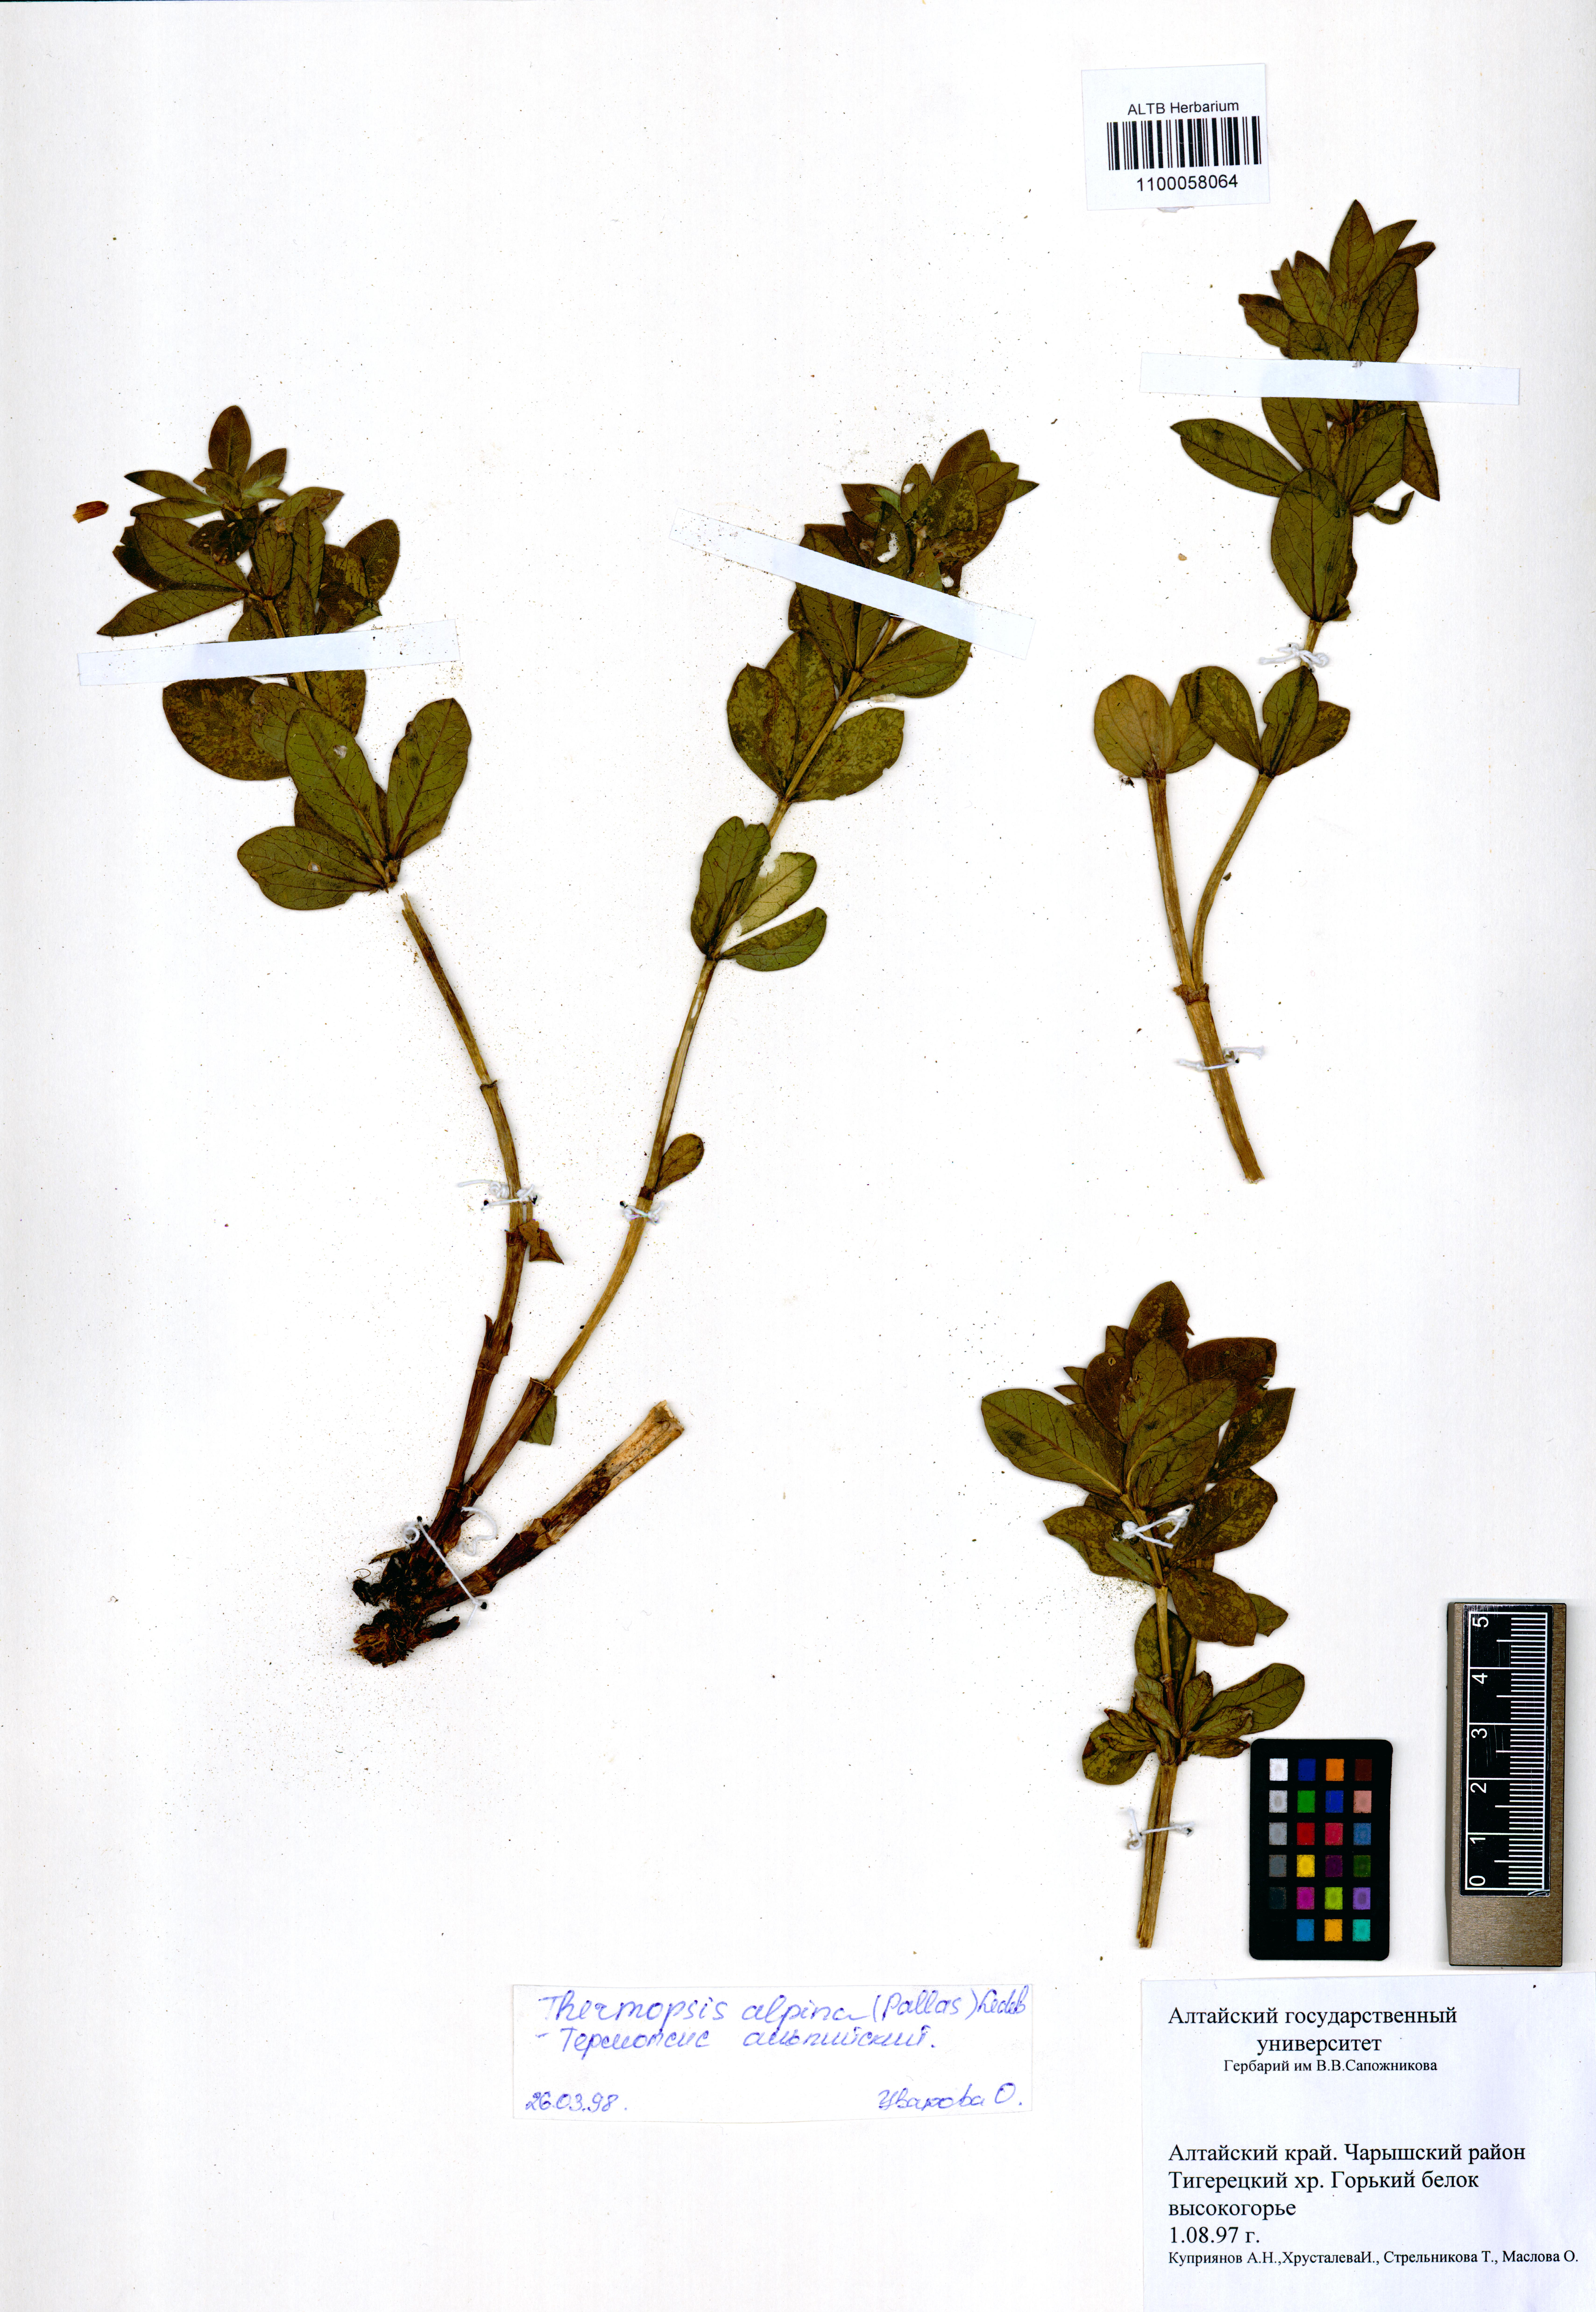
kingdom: Plantae
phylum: Tracheophyta
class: Magnoliopsida
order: Fabales
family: Fabaceae
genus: Thermopsis
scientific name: Thermopsis alpina
